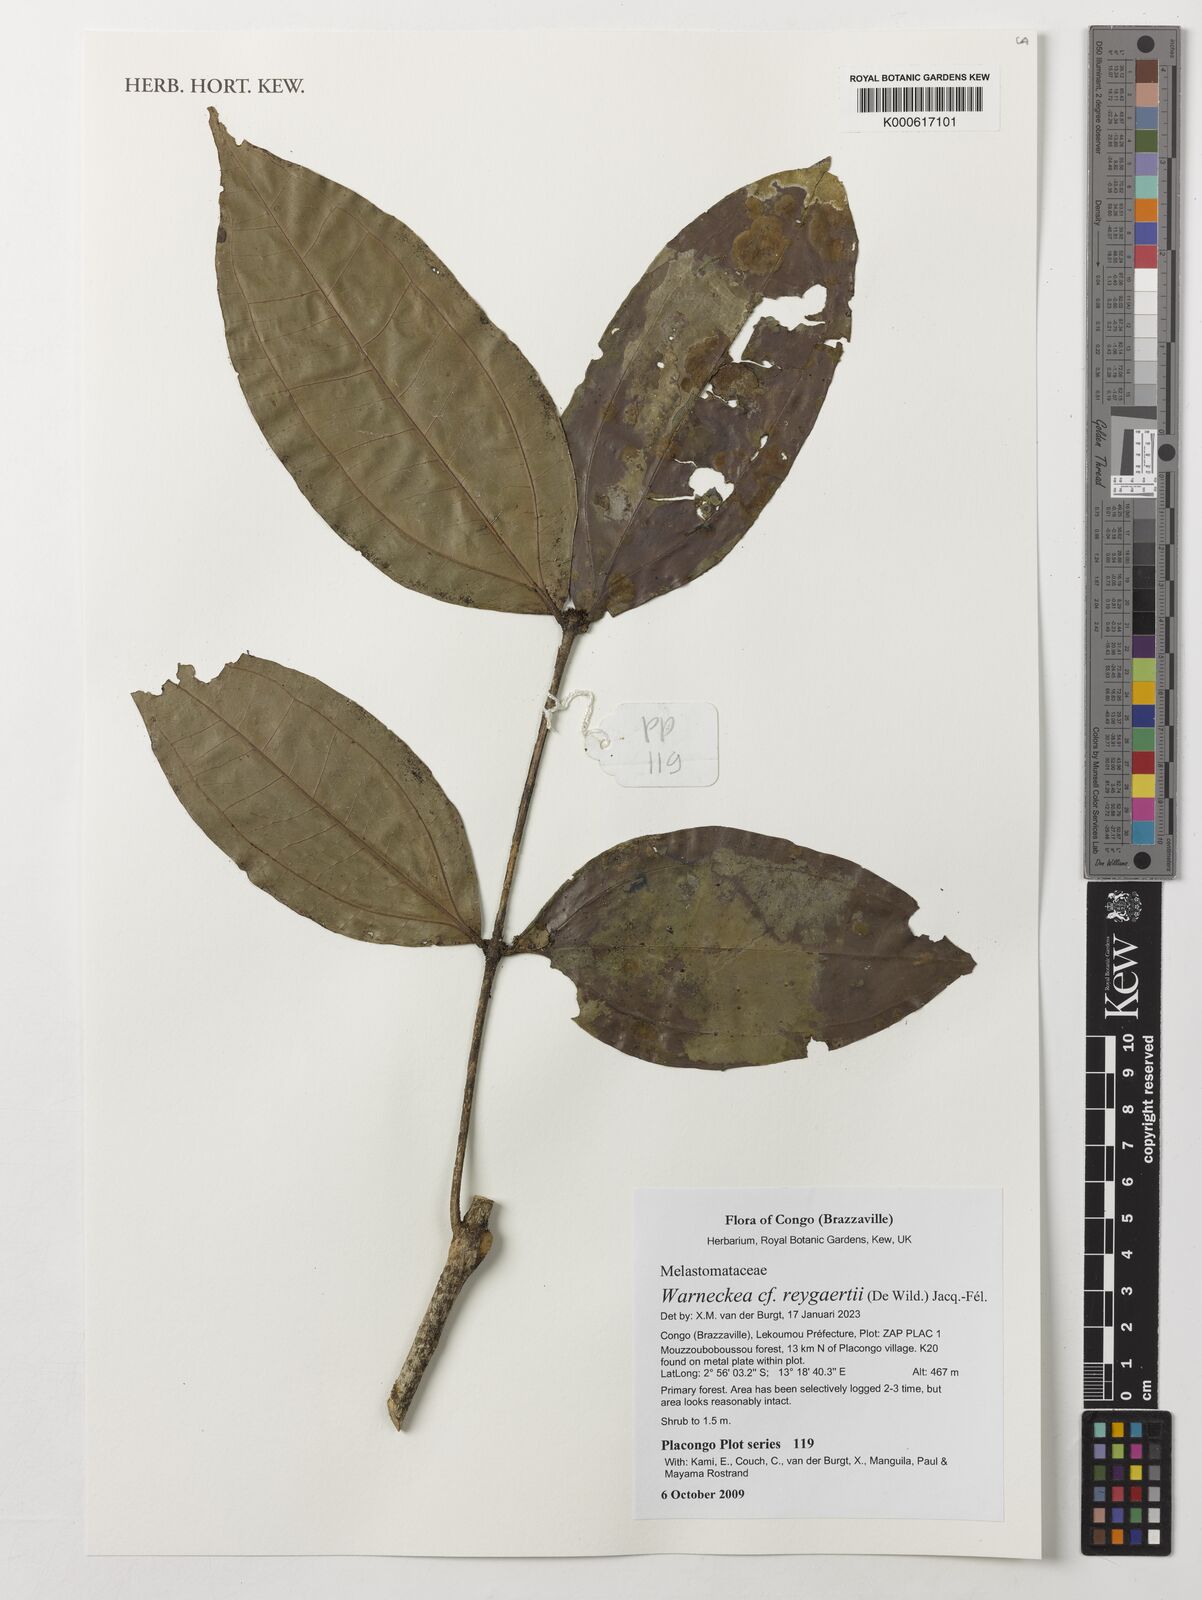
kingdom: Plantae
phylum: Tracheophyta
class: Magnoliopsida
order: Myrtales
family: Melastomataceae
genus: Warneckea
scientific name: Warneckea reygaertii
